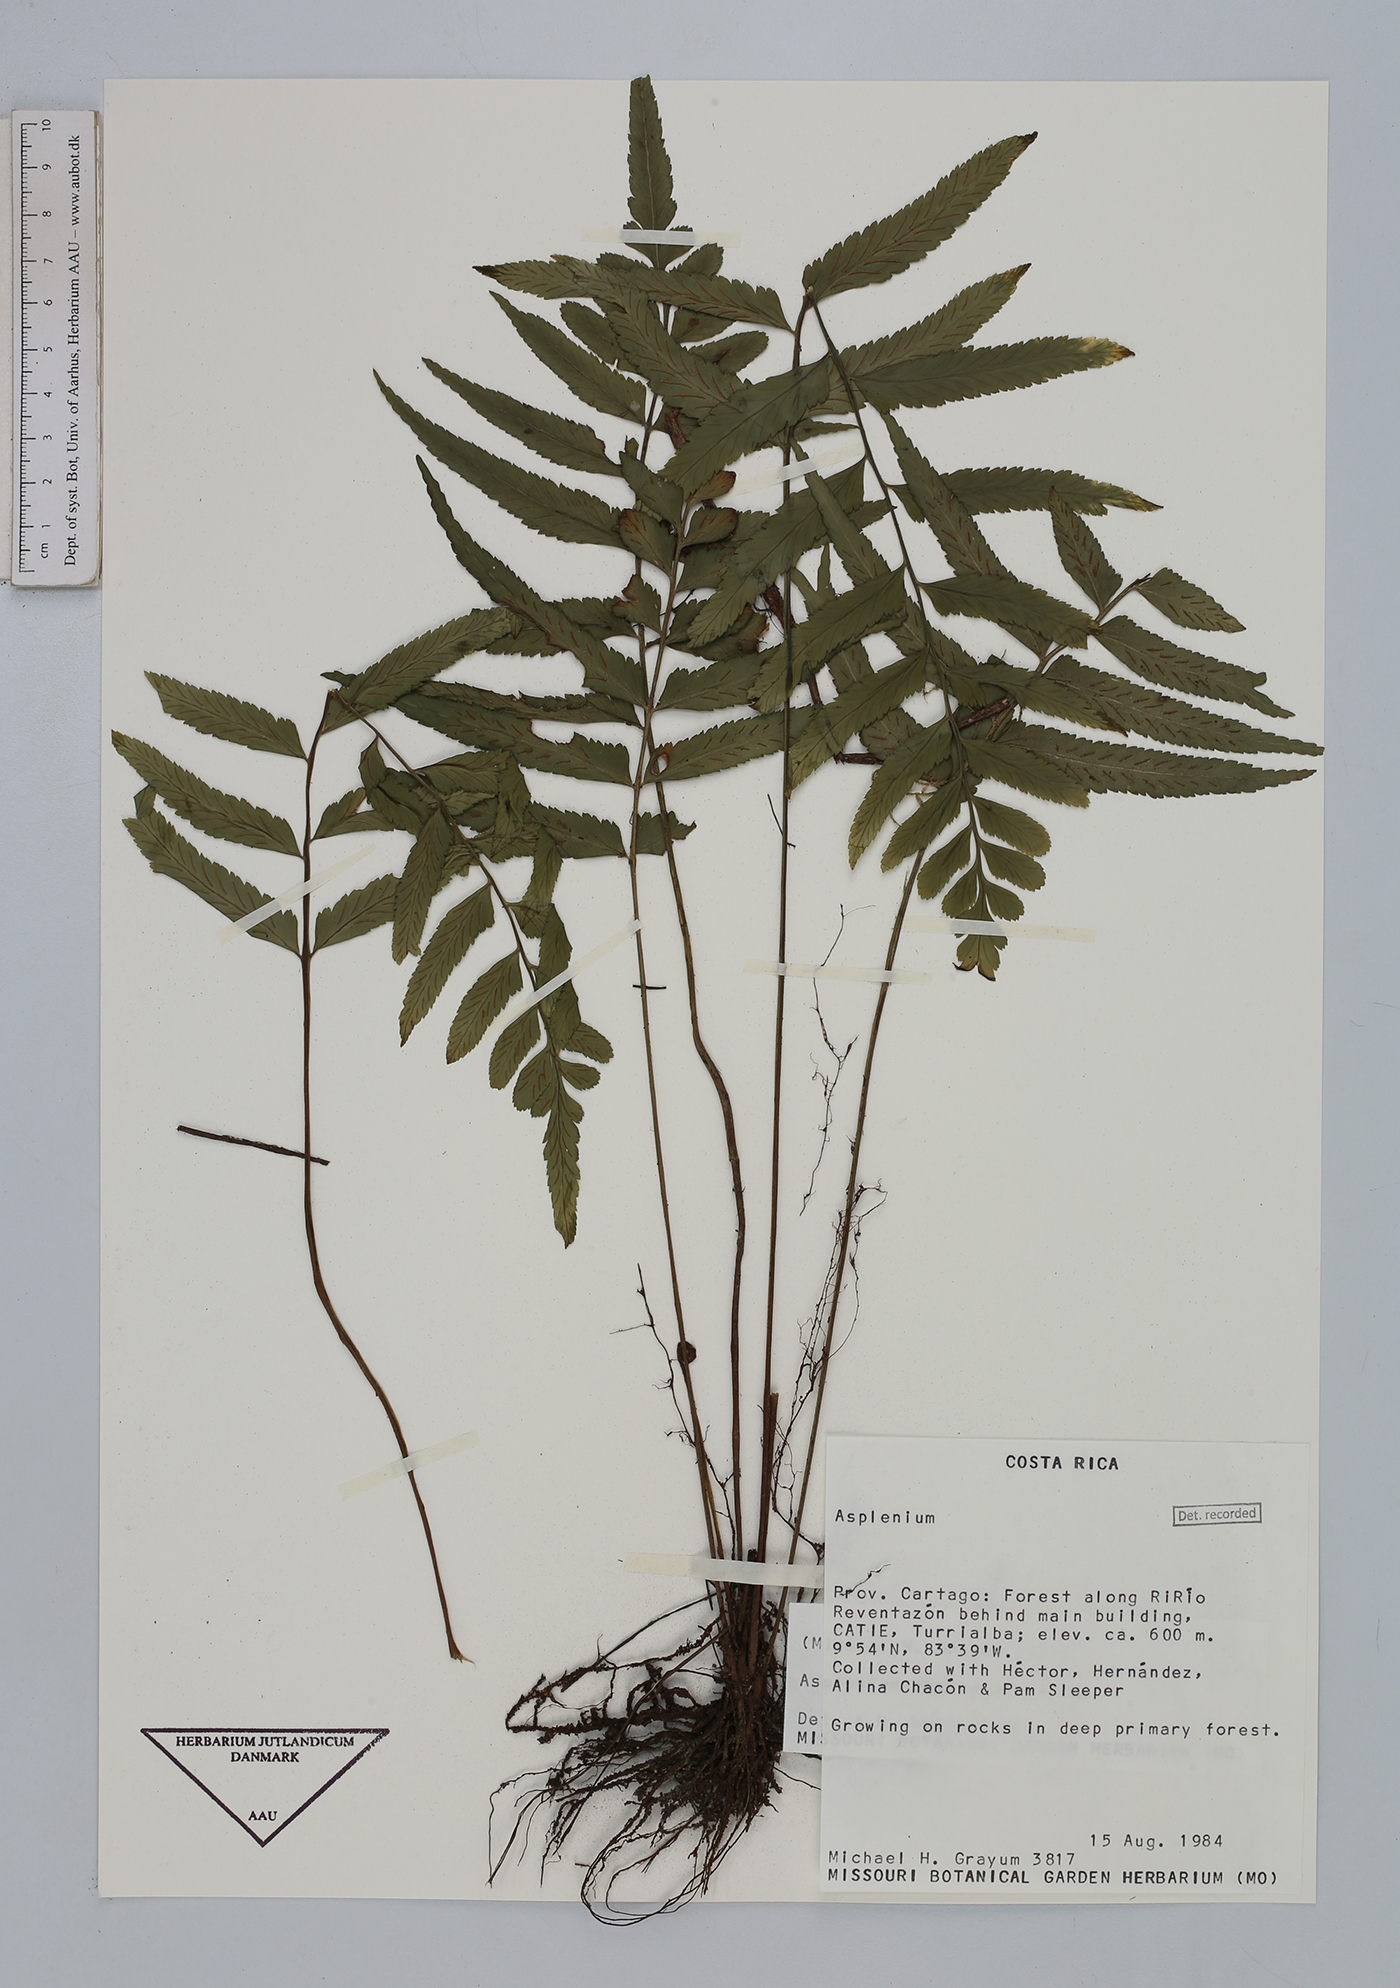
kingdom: Plantae
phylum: Tracheophyta
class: Polypodiopsida
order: Polypodiales
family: Aspleniaceae
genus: Asplenium
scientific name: Asplenium abscissum
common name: Cutleaf spleenwort
